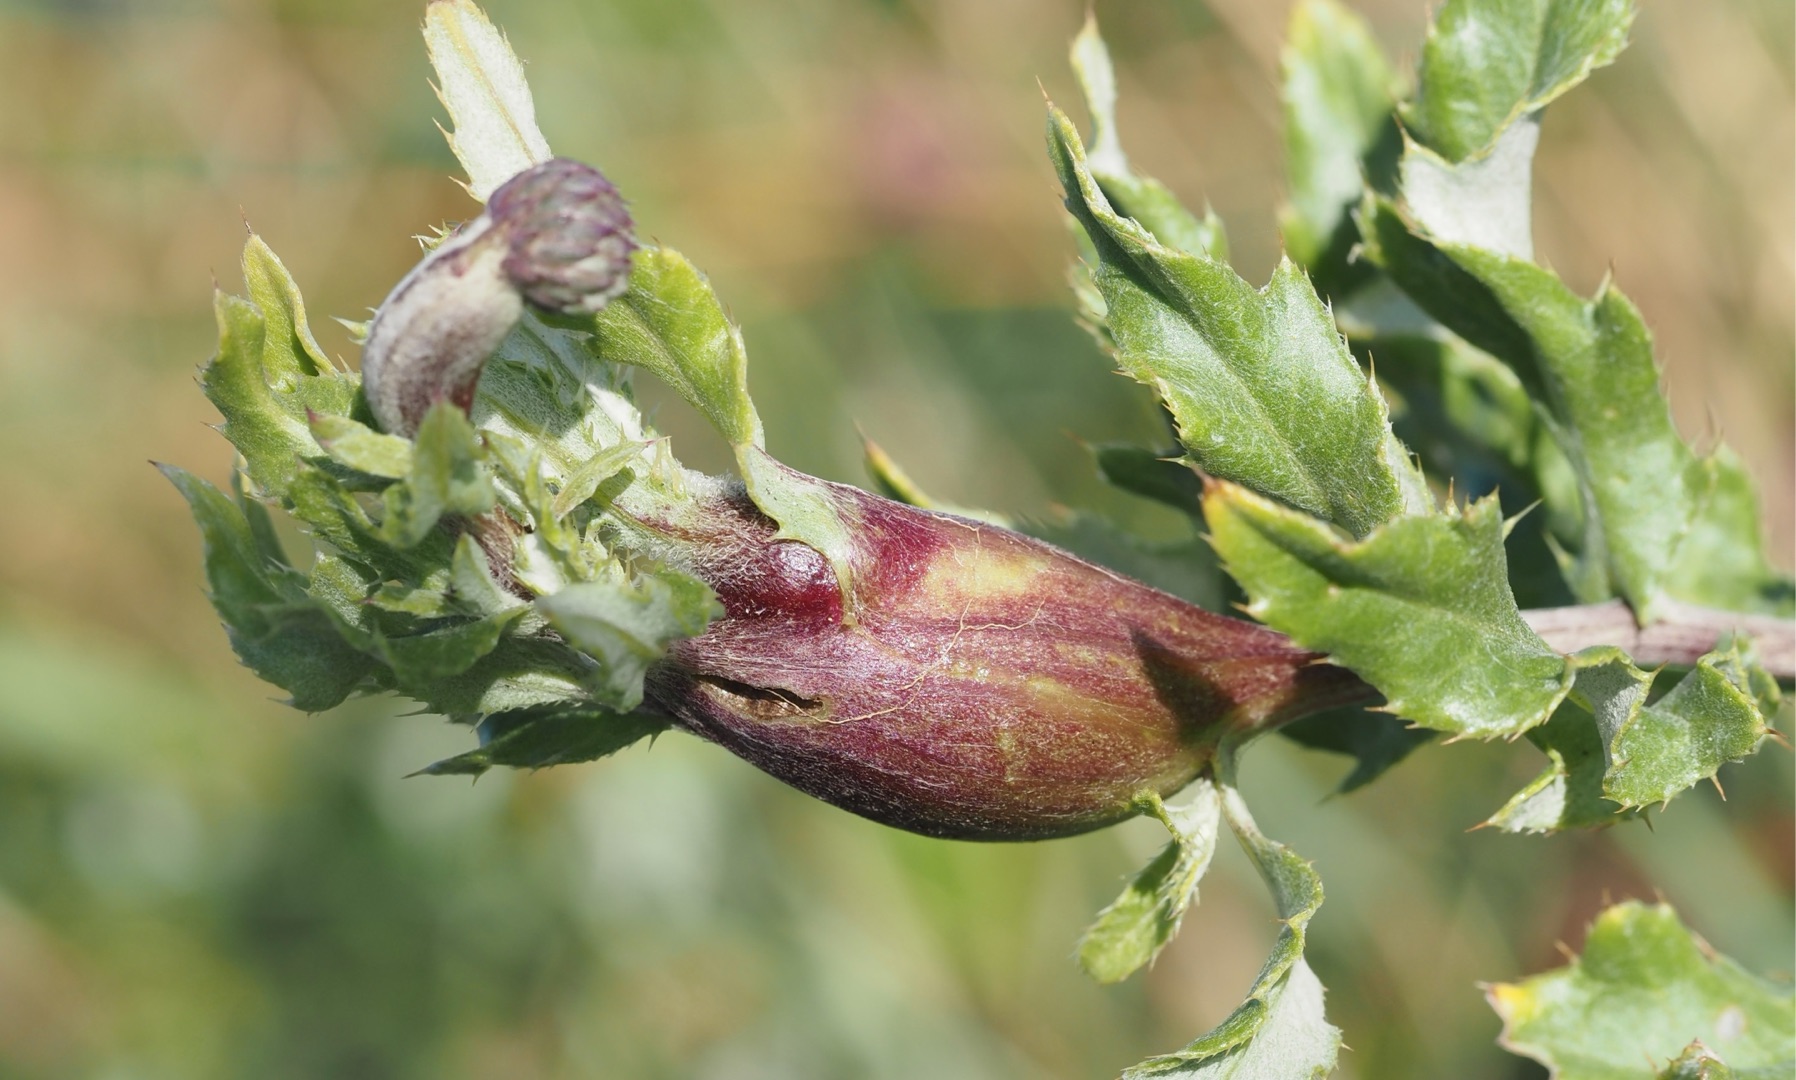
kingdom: Animalia
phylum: Arthropoda
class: Insecta
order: Diptera
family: Tephritidae
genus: Urophora
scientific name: Urophora cardui
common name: Tidselbåndflue
